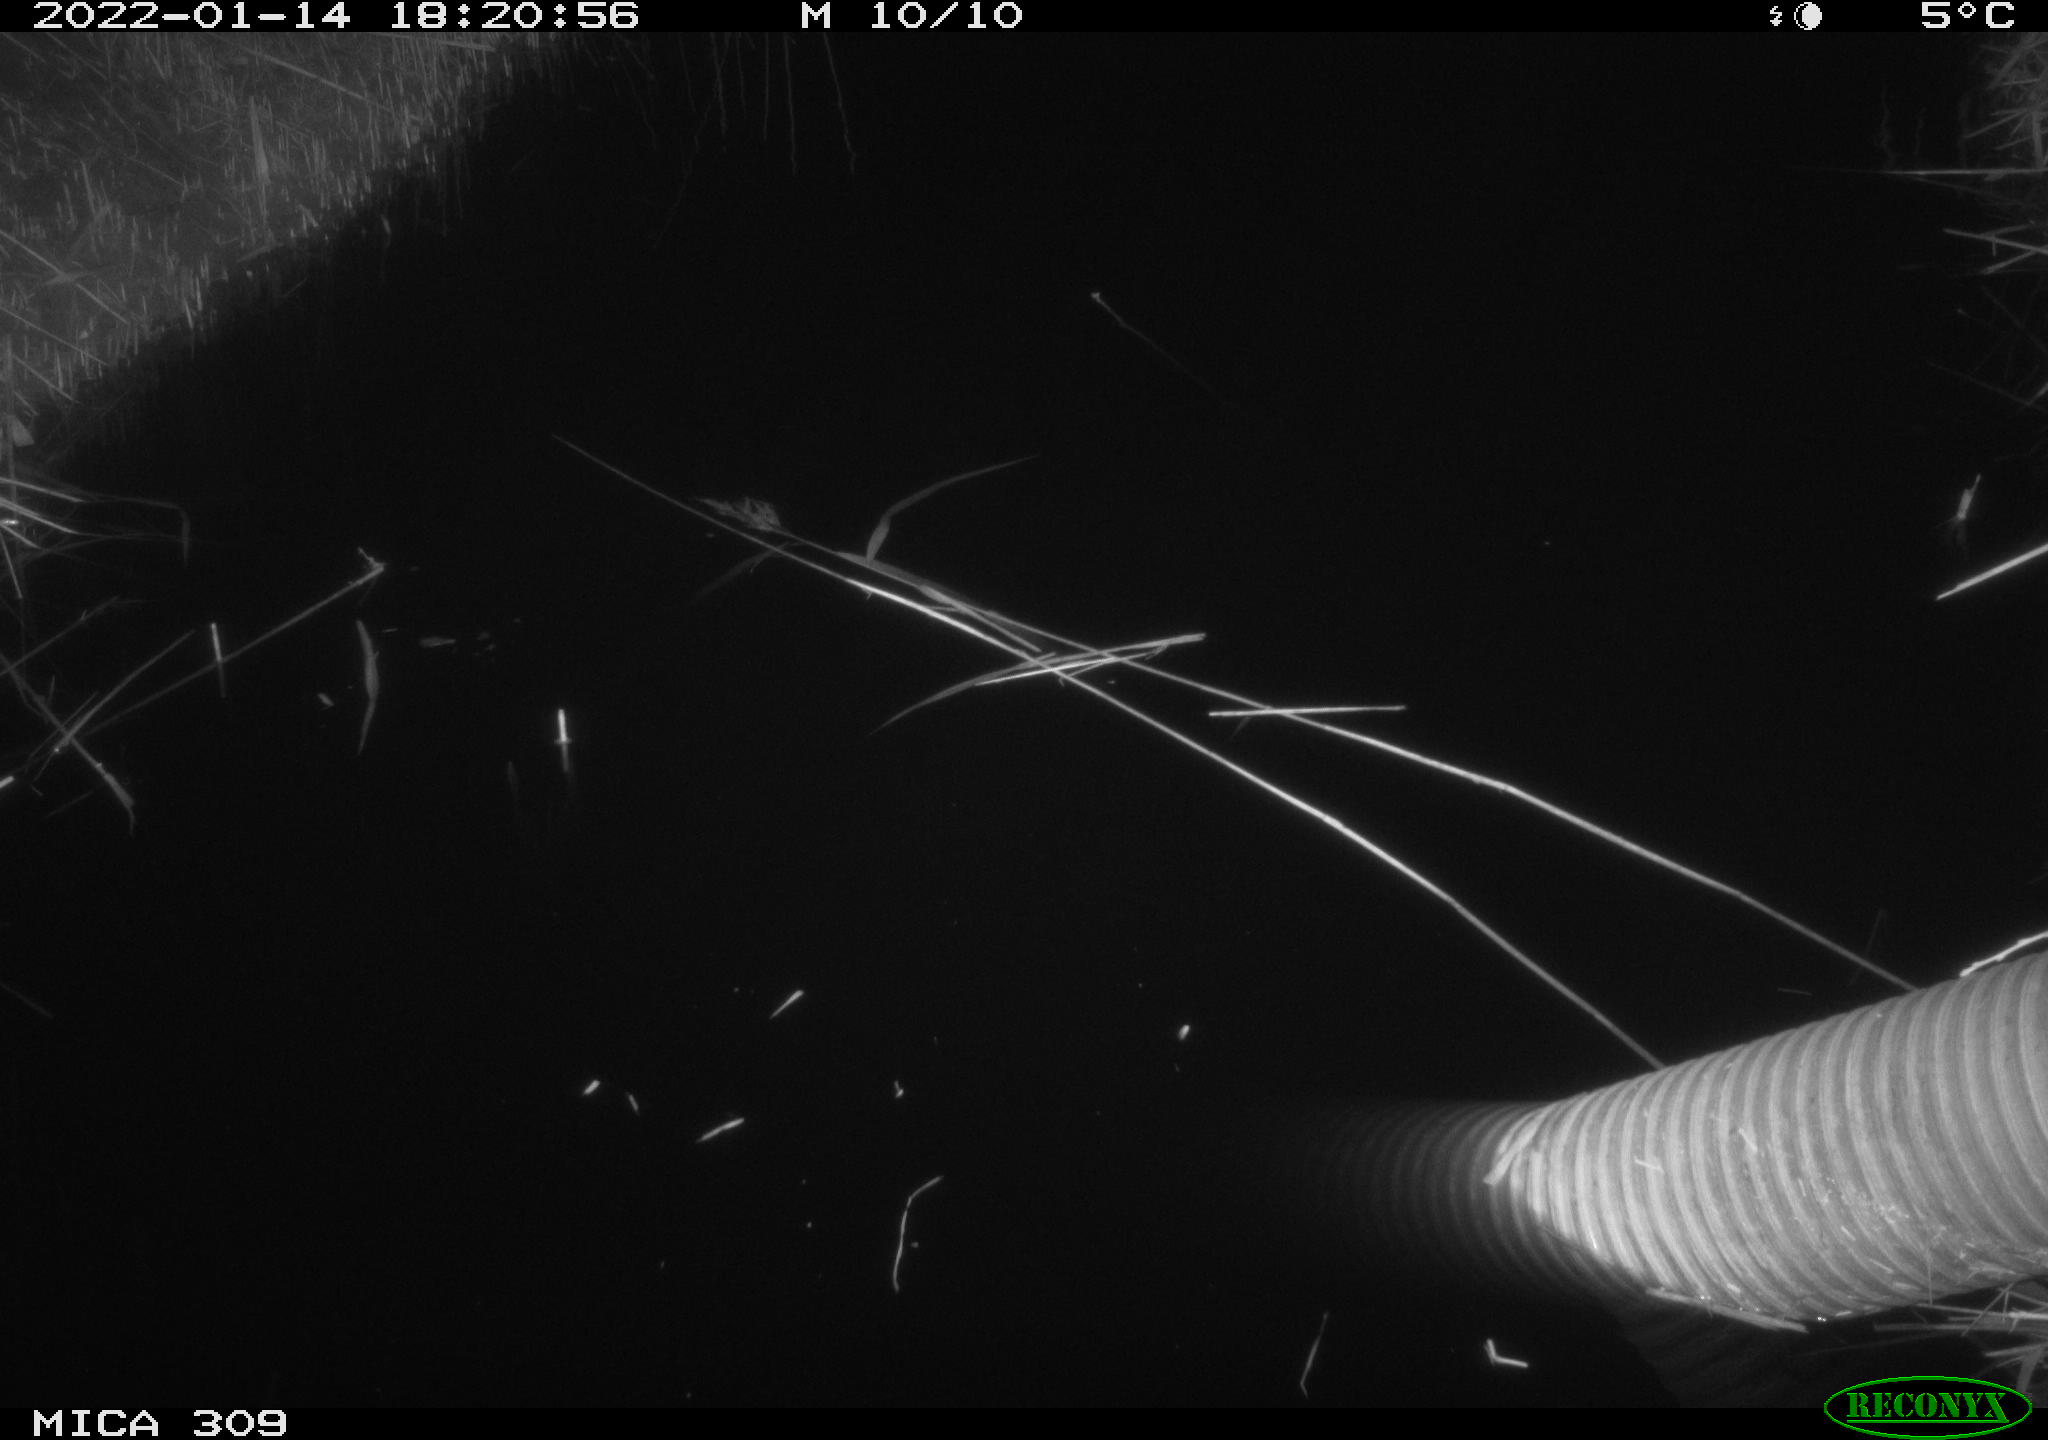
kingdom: Animalia
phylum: Chordata
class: Aves
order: Gruiformes
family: Rallidae
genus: Fulica
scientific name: Fulica atra
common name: Eurasian coot
